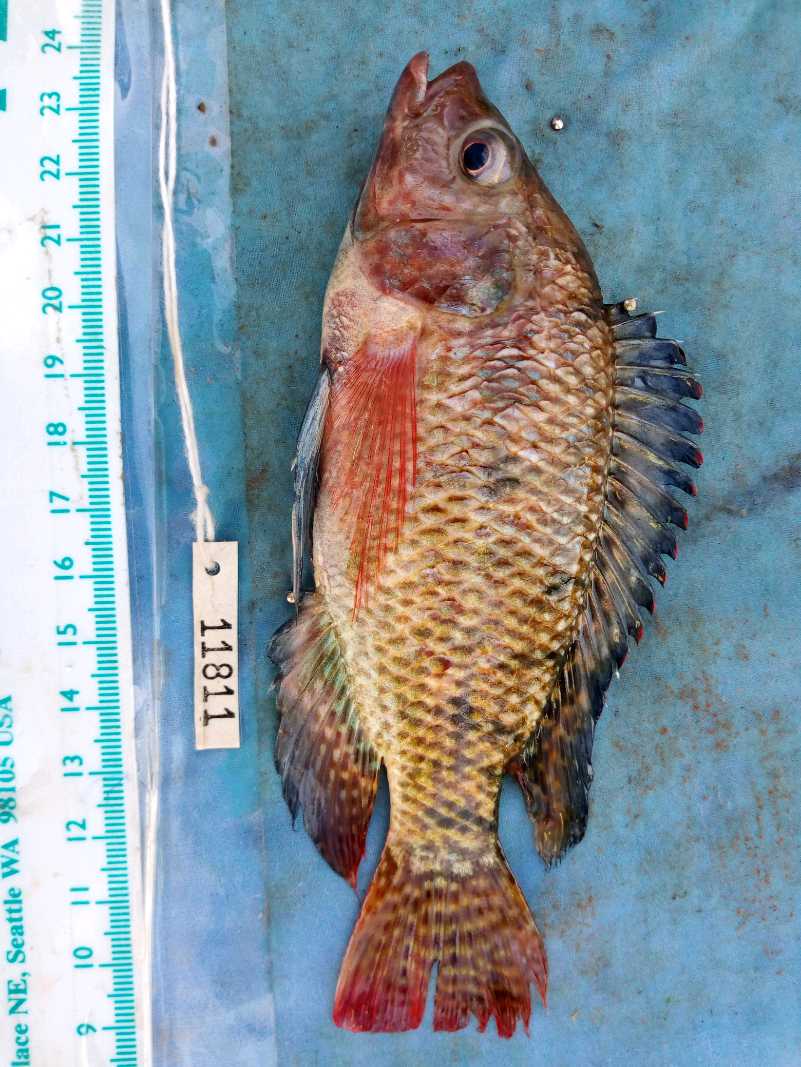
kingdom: Animalia
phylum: Chordata
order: Perciformes
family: Cichlidae
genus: Oreochromis
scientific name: Oreochromis spilurus
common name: Sabaki tilapia
